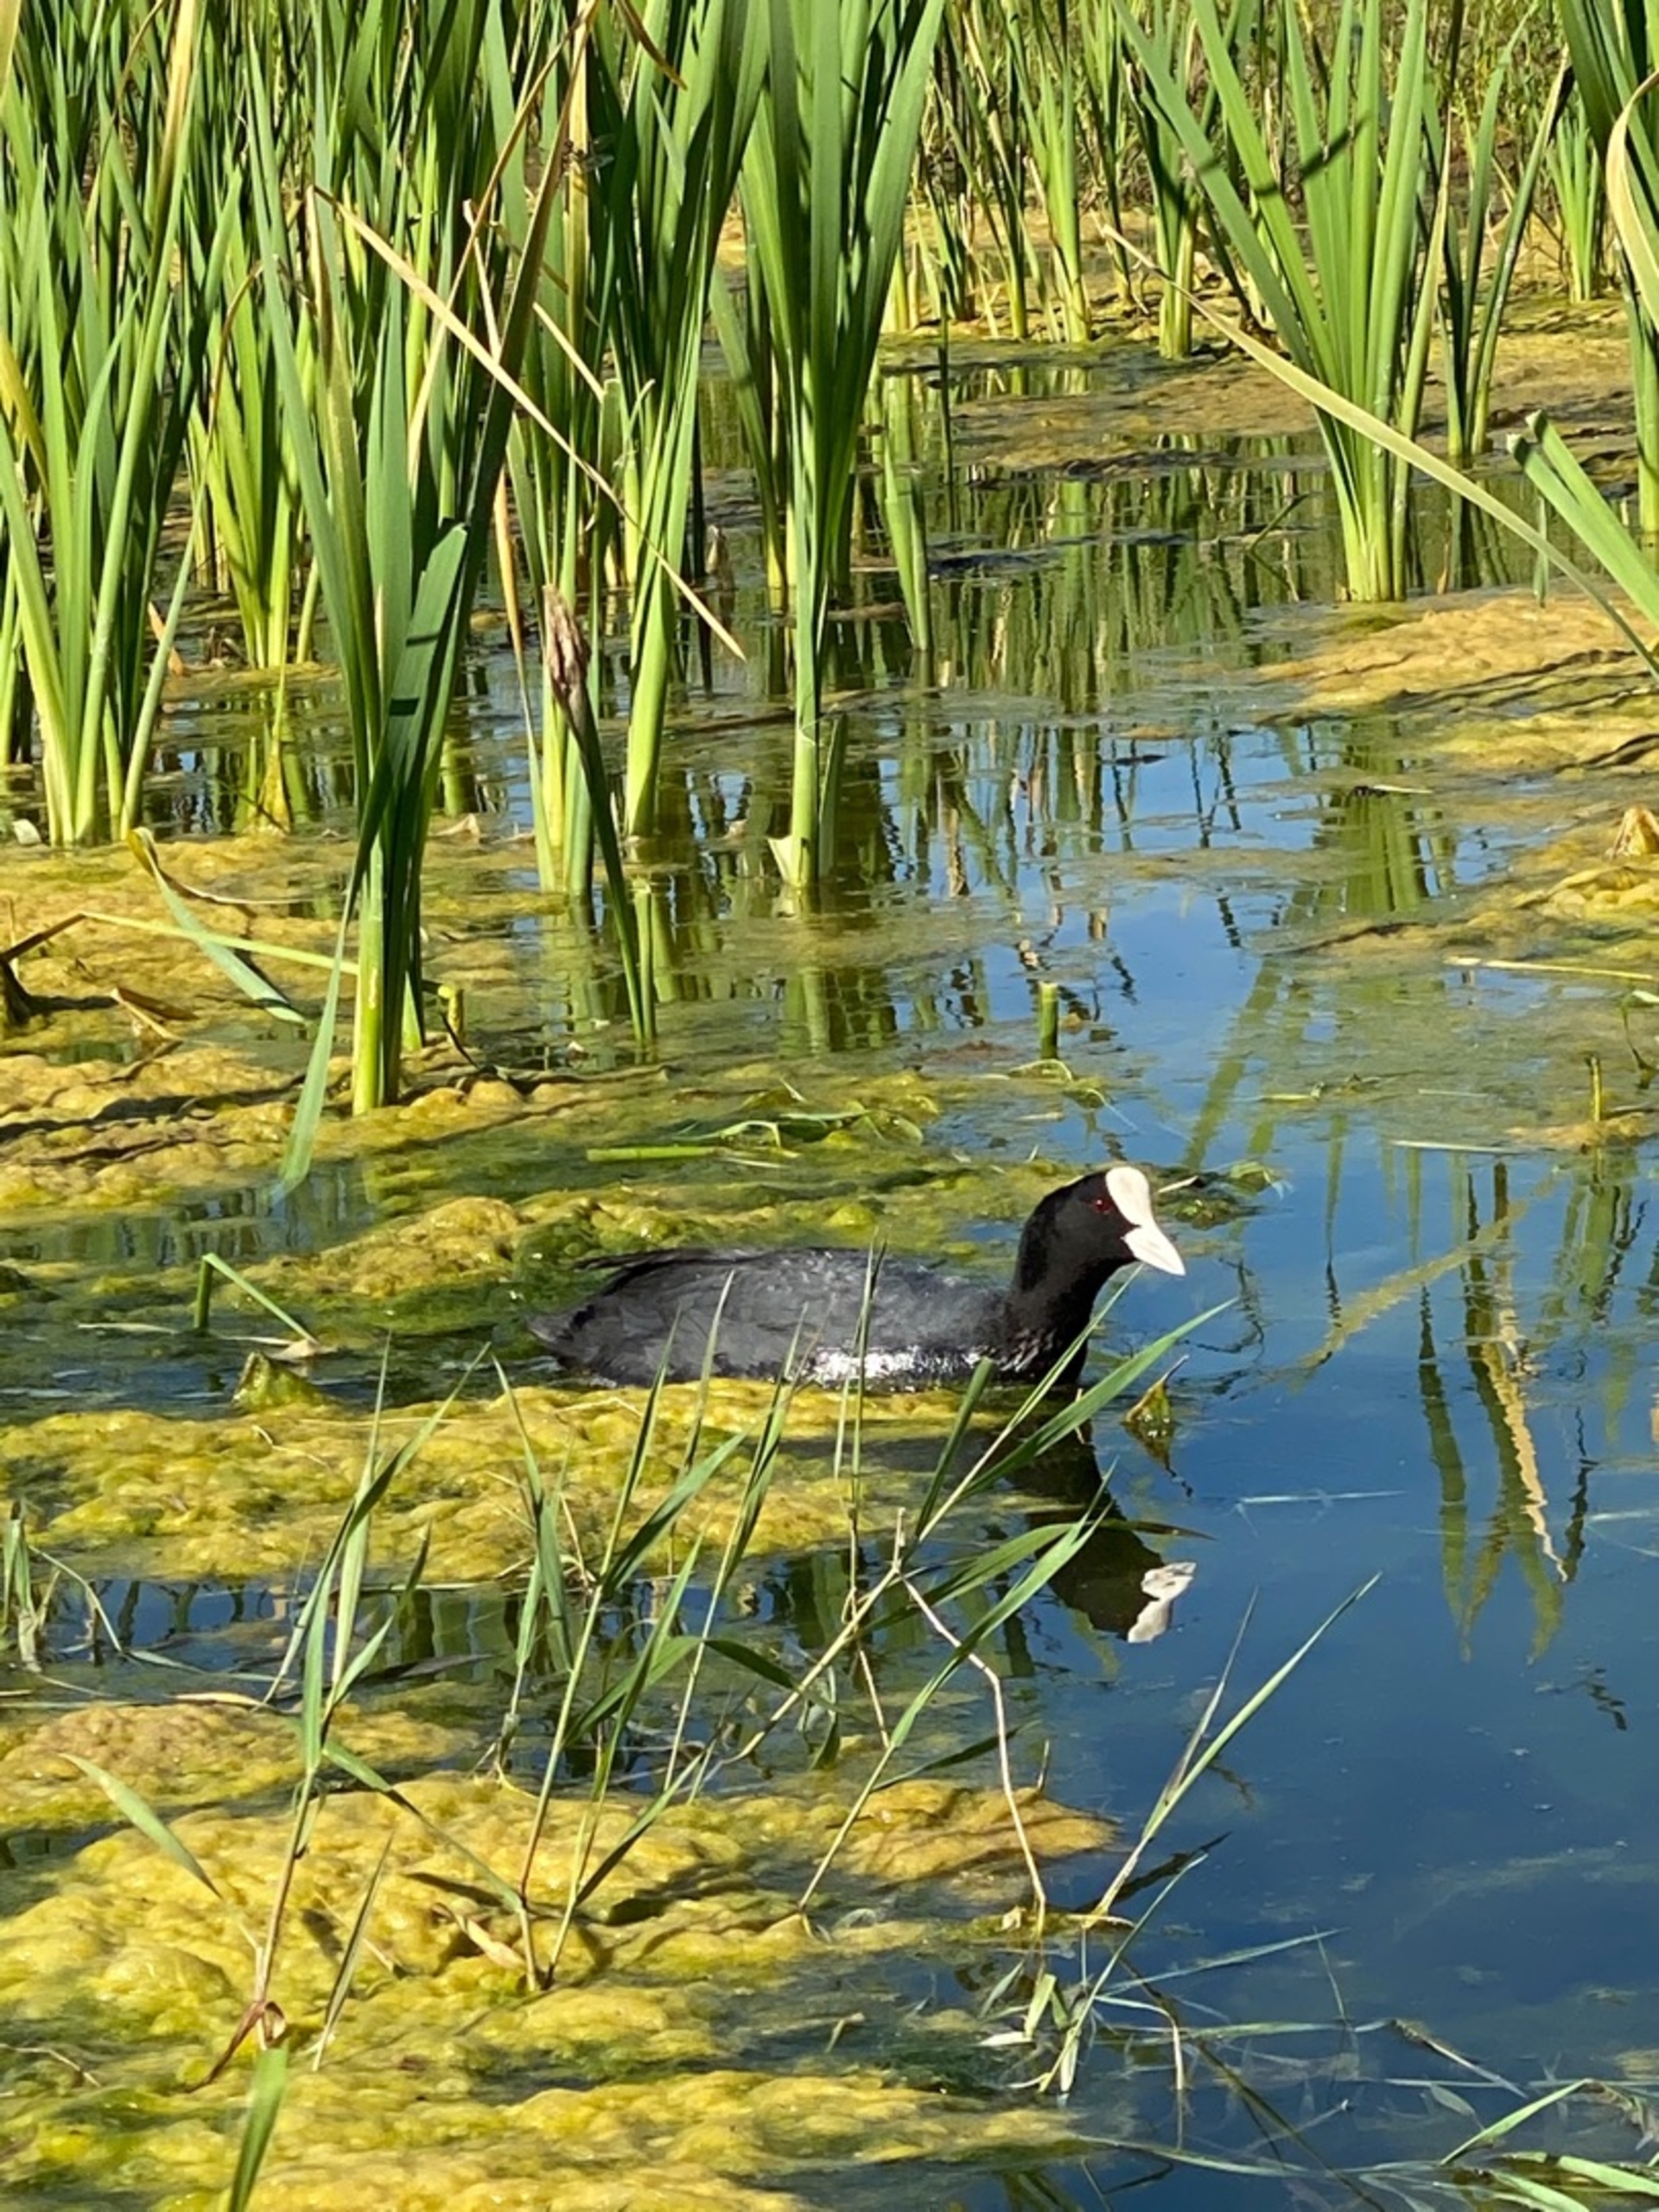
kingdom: Animalia
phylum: Chordata
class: Aves
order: Gruiformes
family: Rallidae
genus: Fulica
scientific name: Fulica atra
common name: Blishøne
